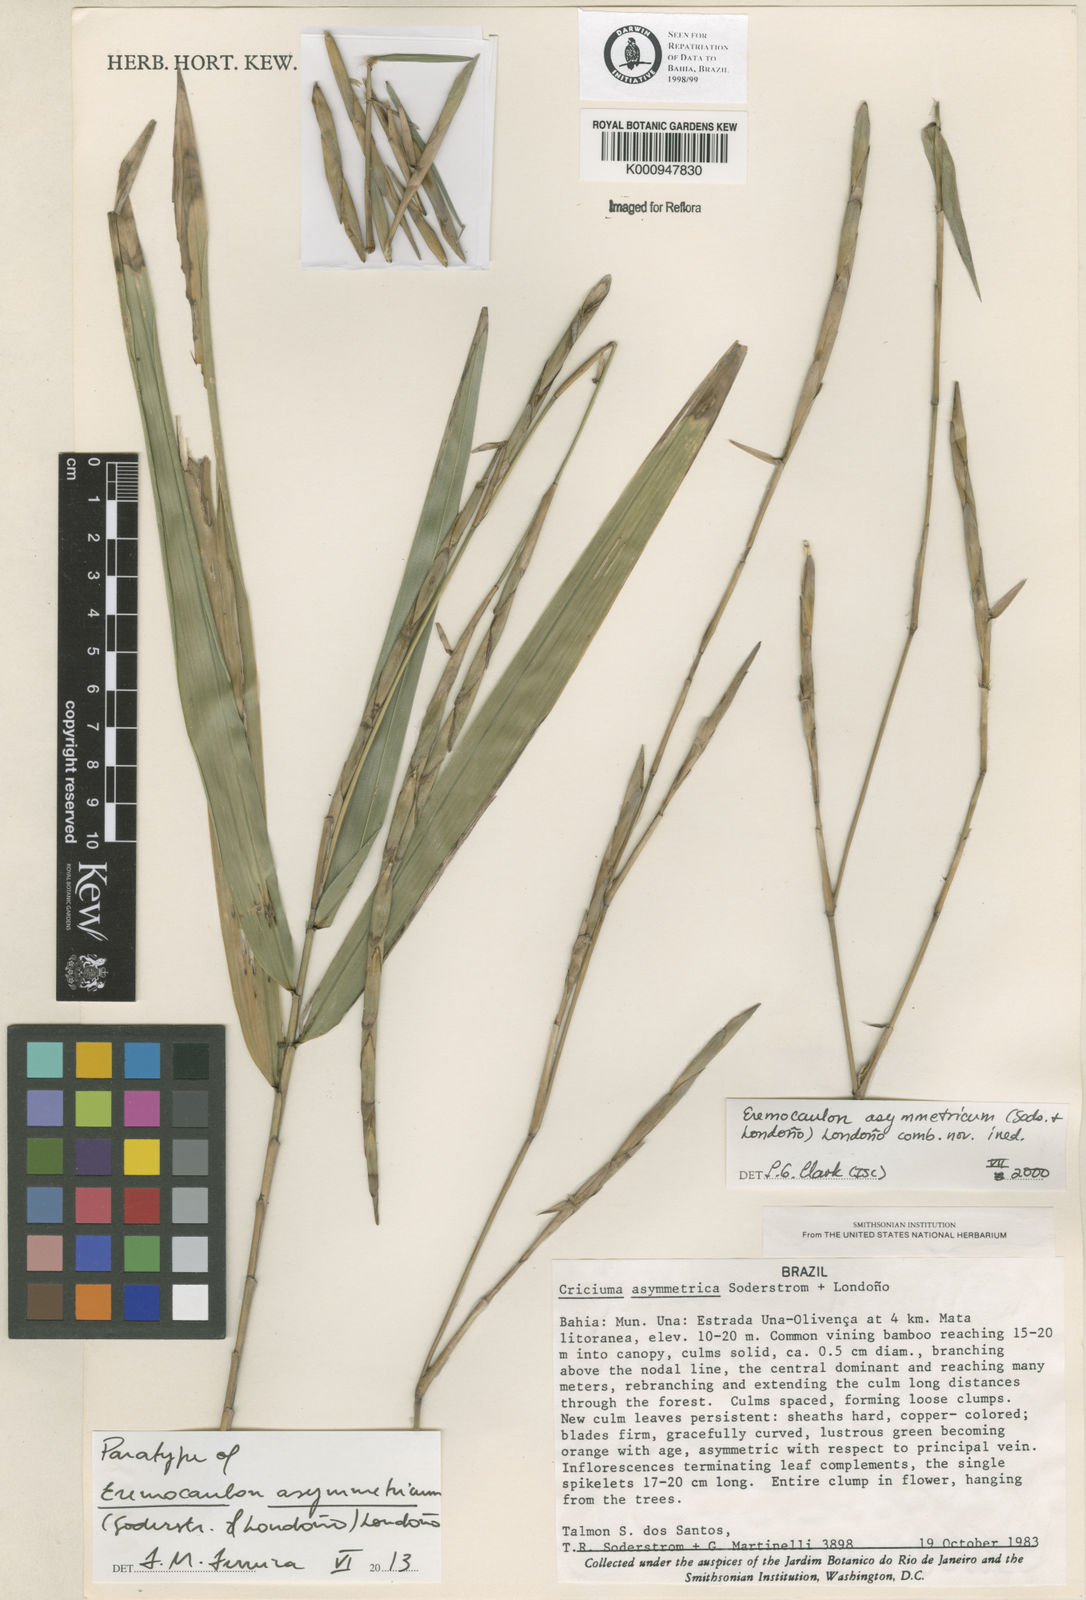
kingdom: Plantae
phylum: Tracheophyta
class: Liliopsida
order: Poales
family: Poaceae
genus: Eremocaulon
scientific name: Eremocaulon
